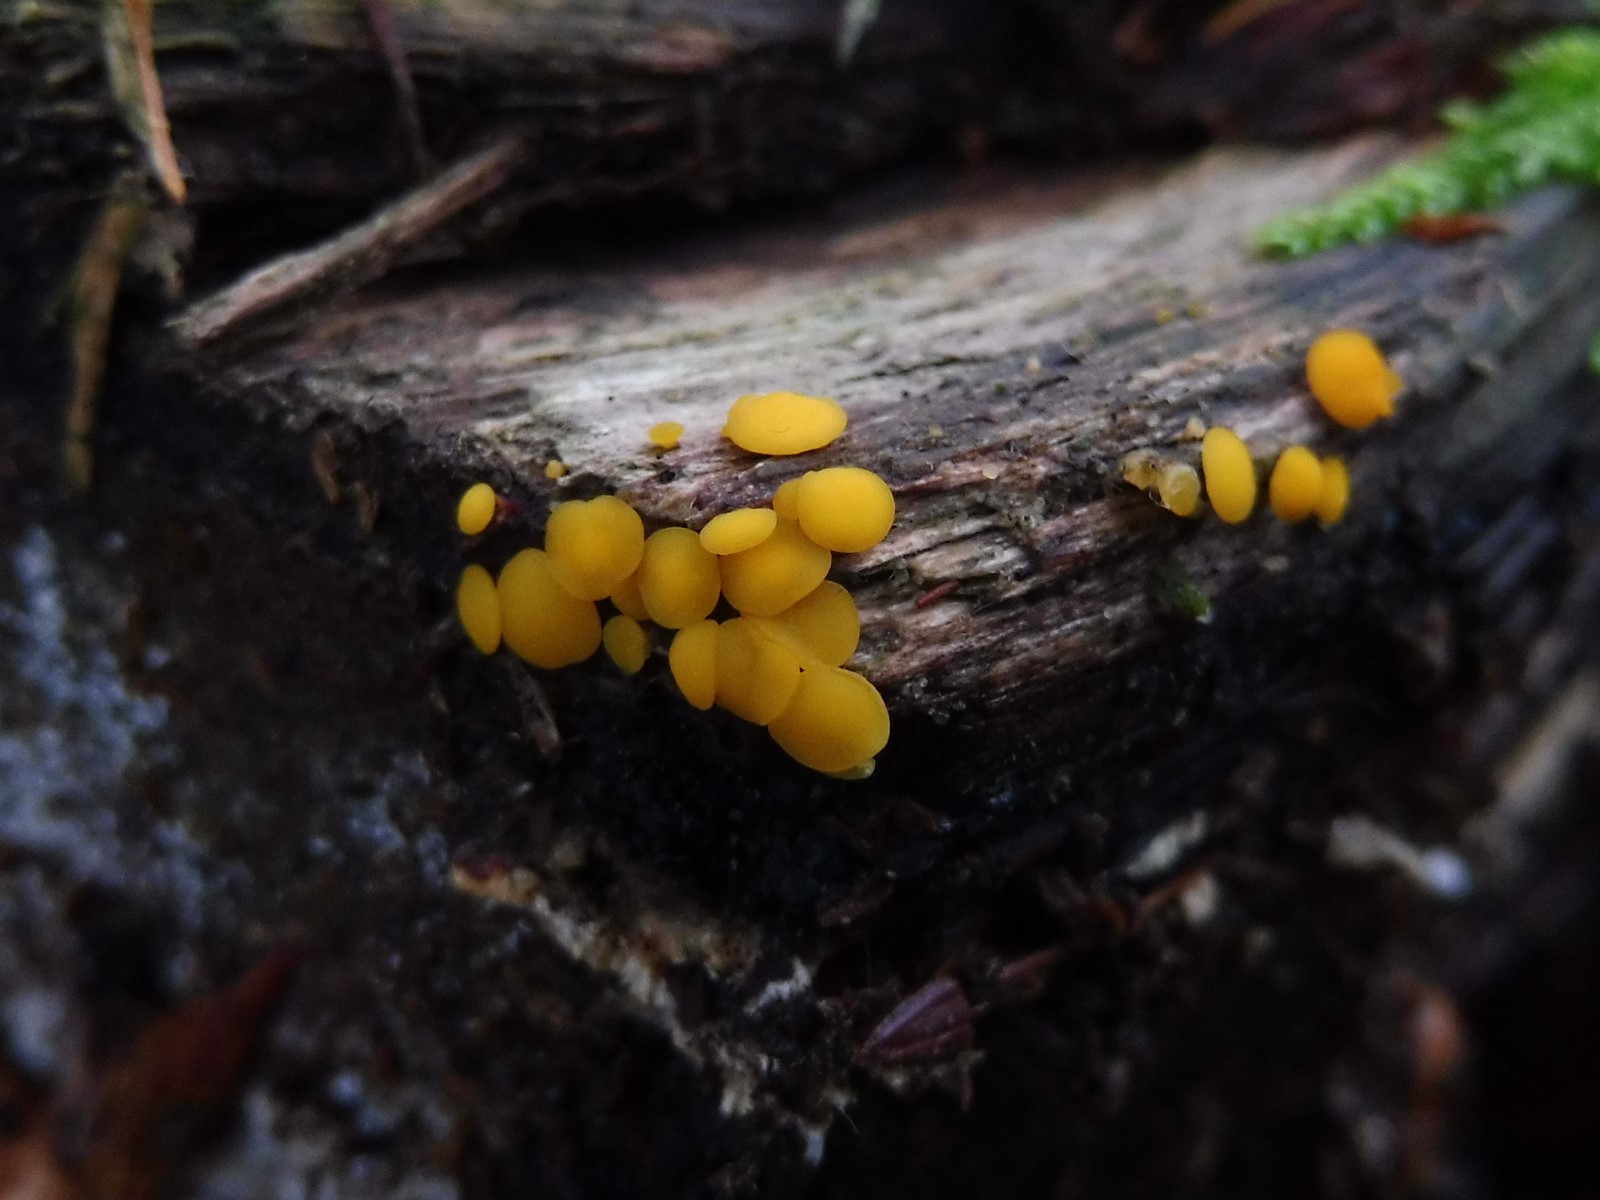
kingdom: Fungi
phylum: Ascomycota
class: Leotiomycetes
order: Helotiales
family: Pezizellaceae
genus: Calycina
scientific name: Calycina citrina
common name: almindelig gulskive
